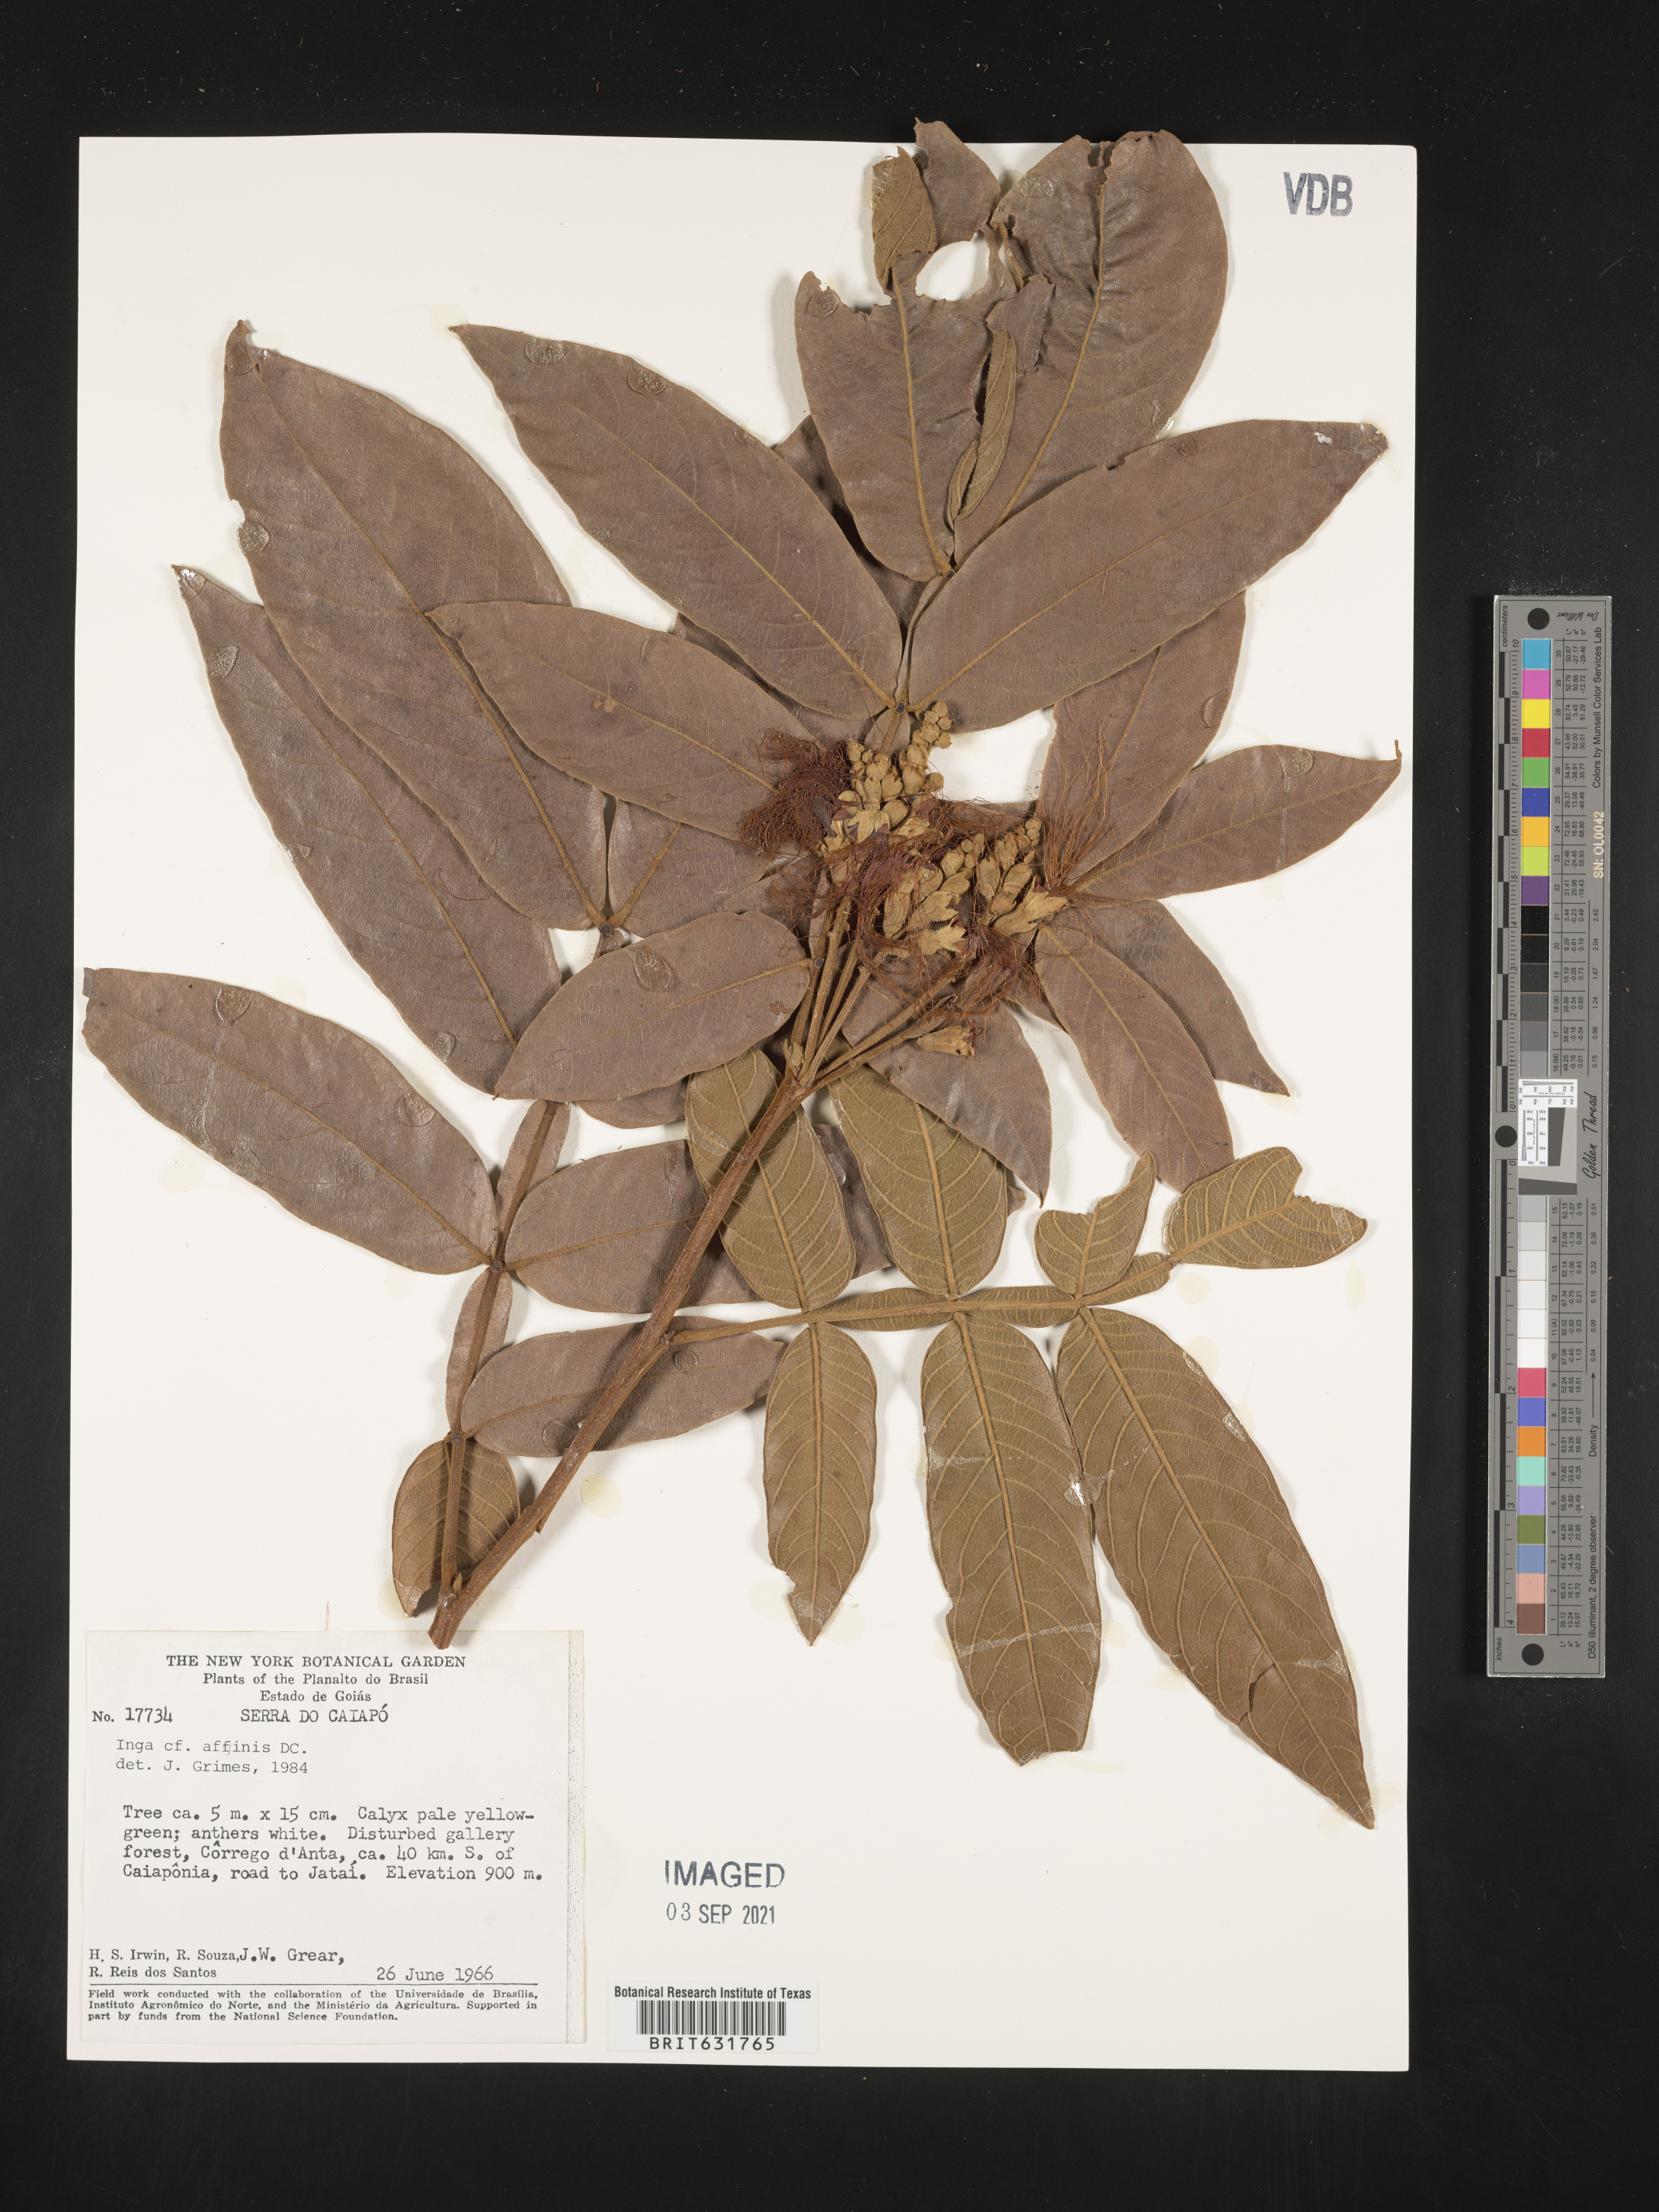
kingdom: Plantae
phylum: Tracheophyta
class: Magnoliopsida
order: Fabales
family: Fabaceae
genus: Inga
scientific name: Inga
